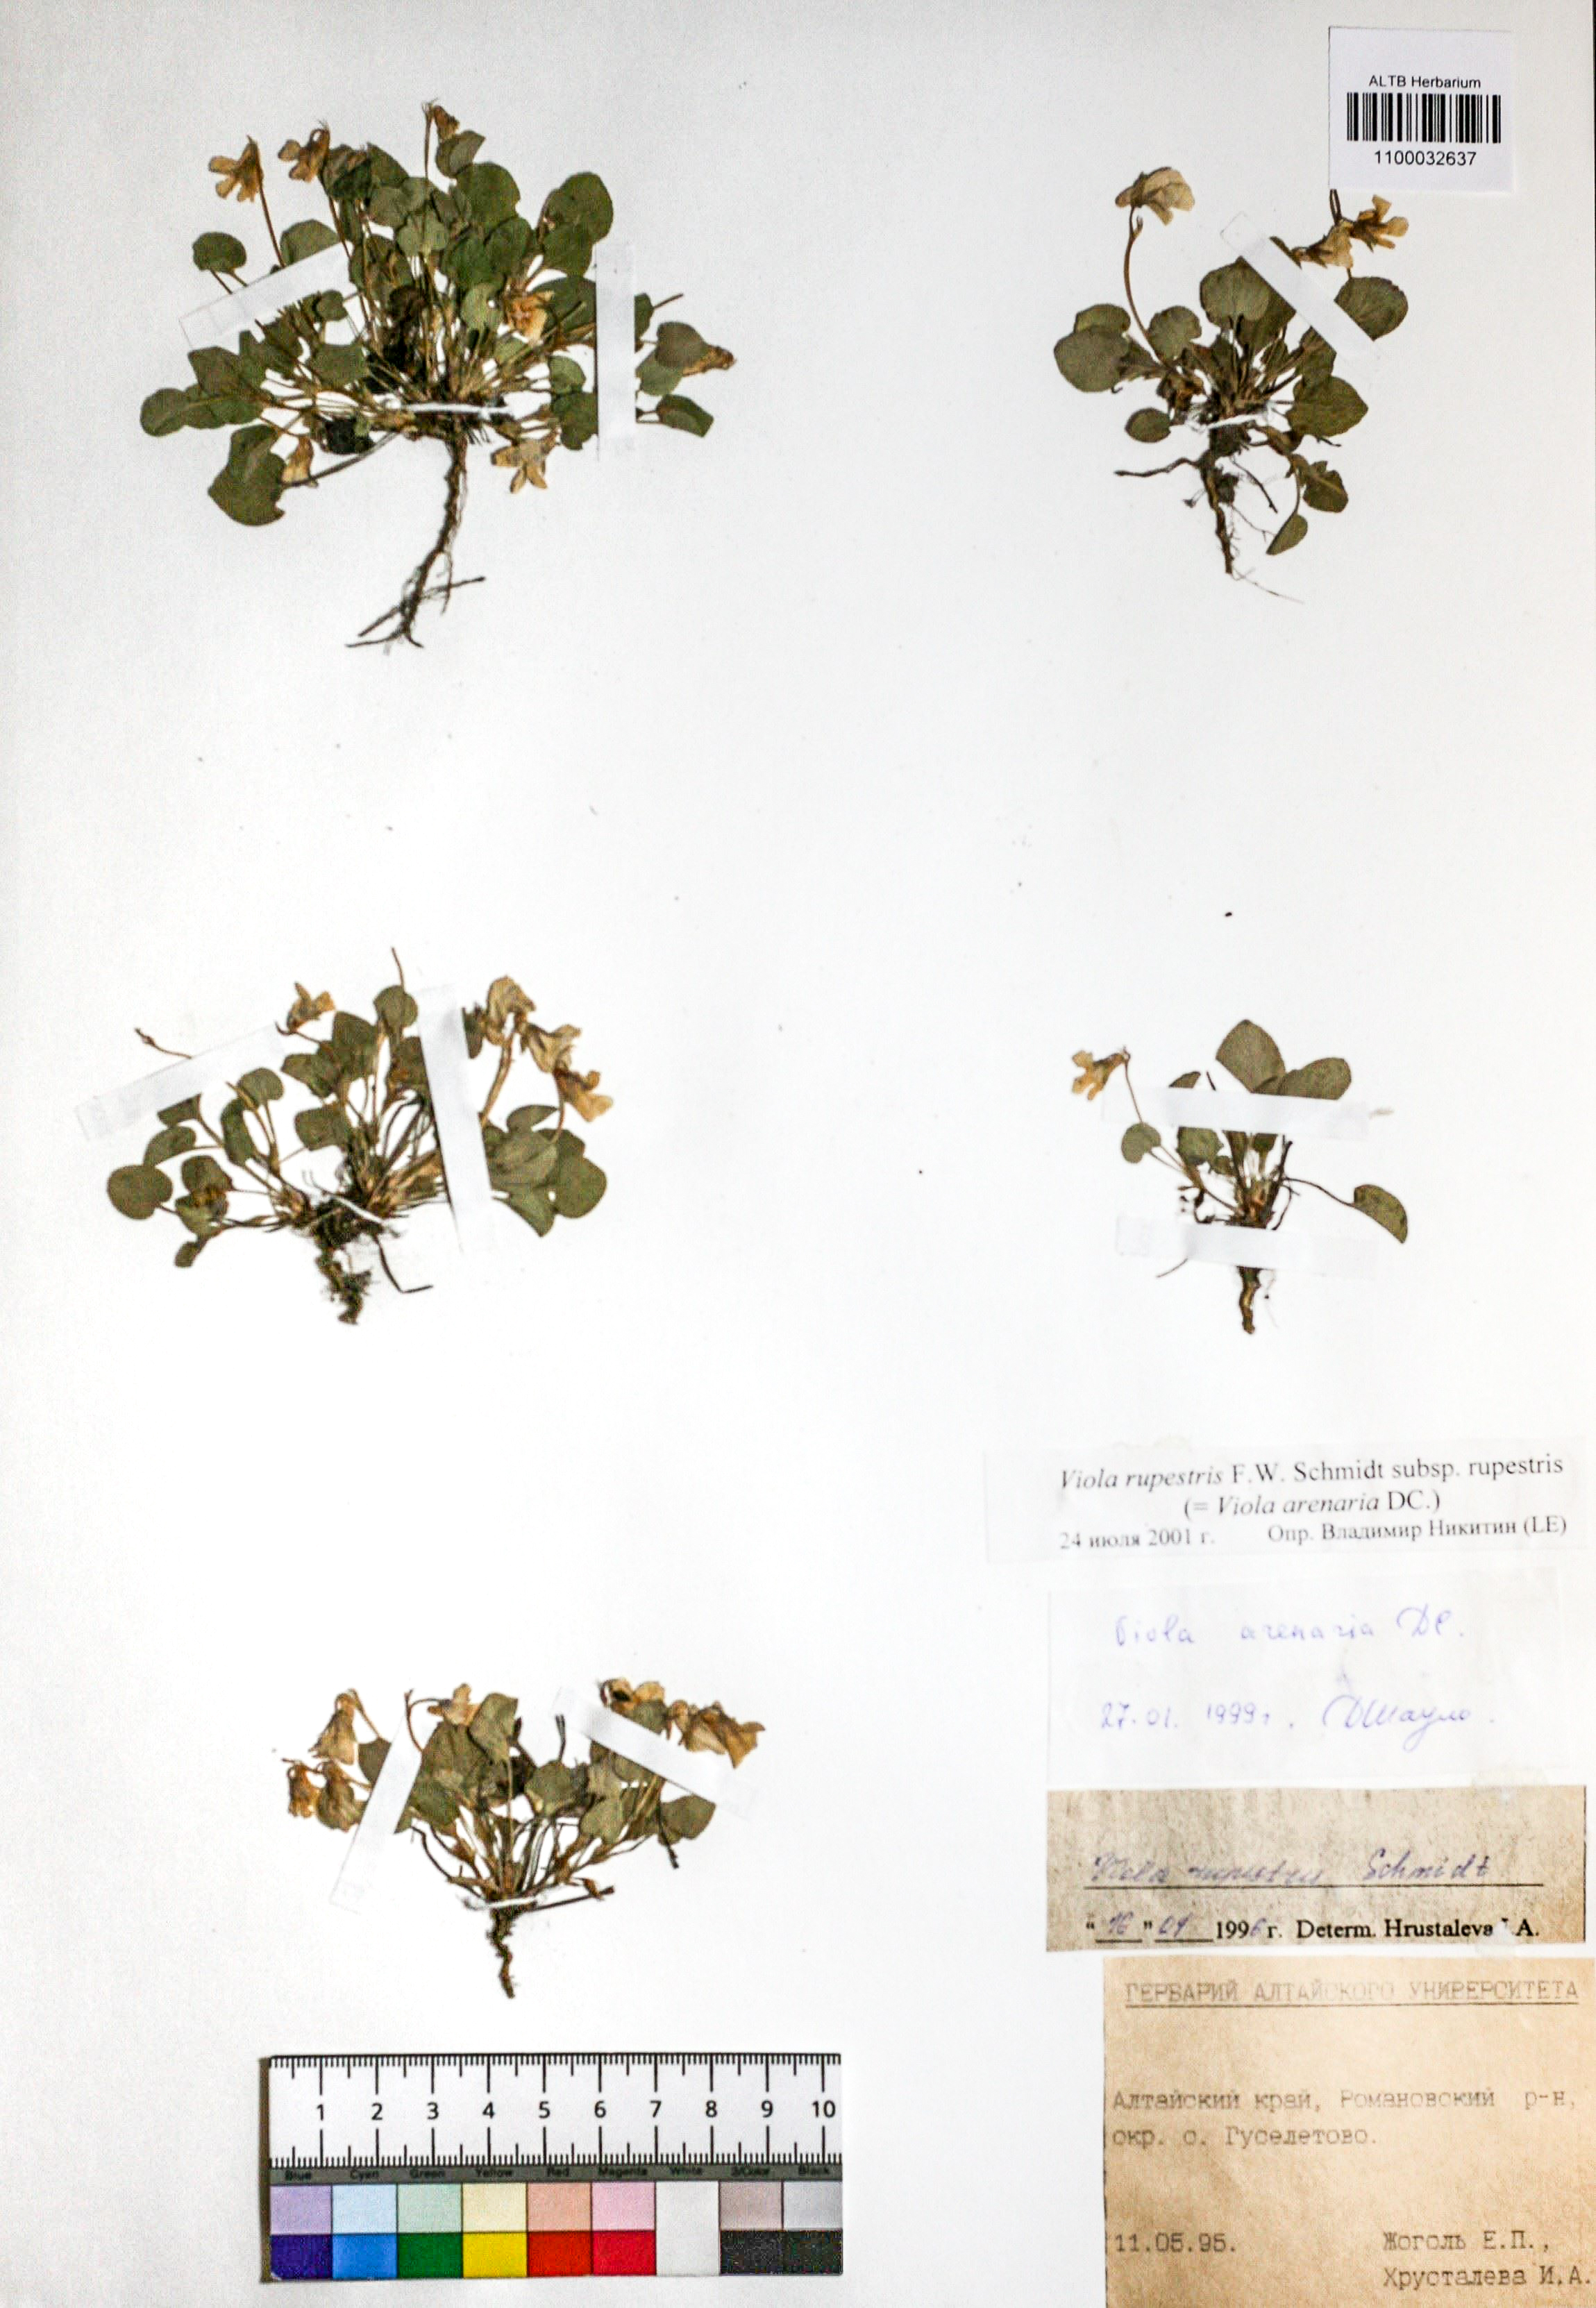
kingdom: Plantae
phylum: Tracheophyta
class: Magnoliopsida
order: Malpighiales
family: Violaceae
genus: Viola
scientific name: Viola rupestris
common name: Teesdale violet
